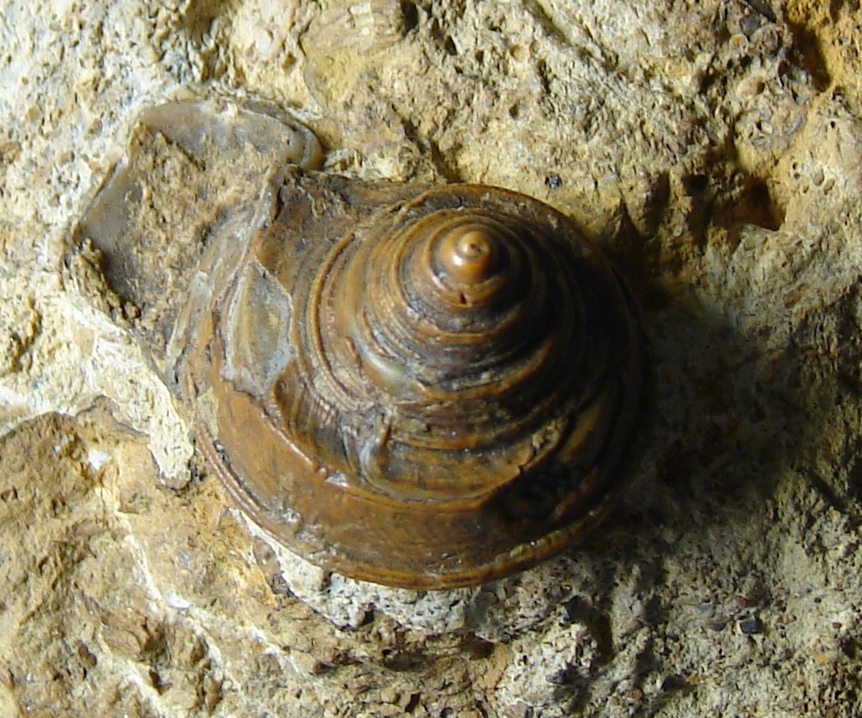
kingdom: Animalia
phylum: Mollusca
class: Gastropoda
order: Pleurotomariida
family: Trochotomidae
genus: Trochotoma
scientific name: Trochotoma affinis
